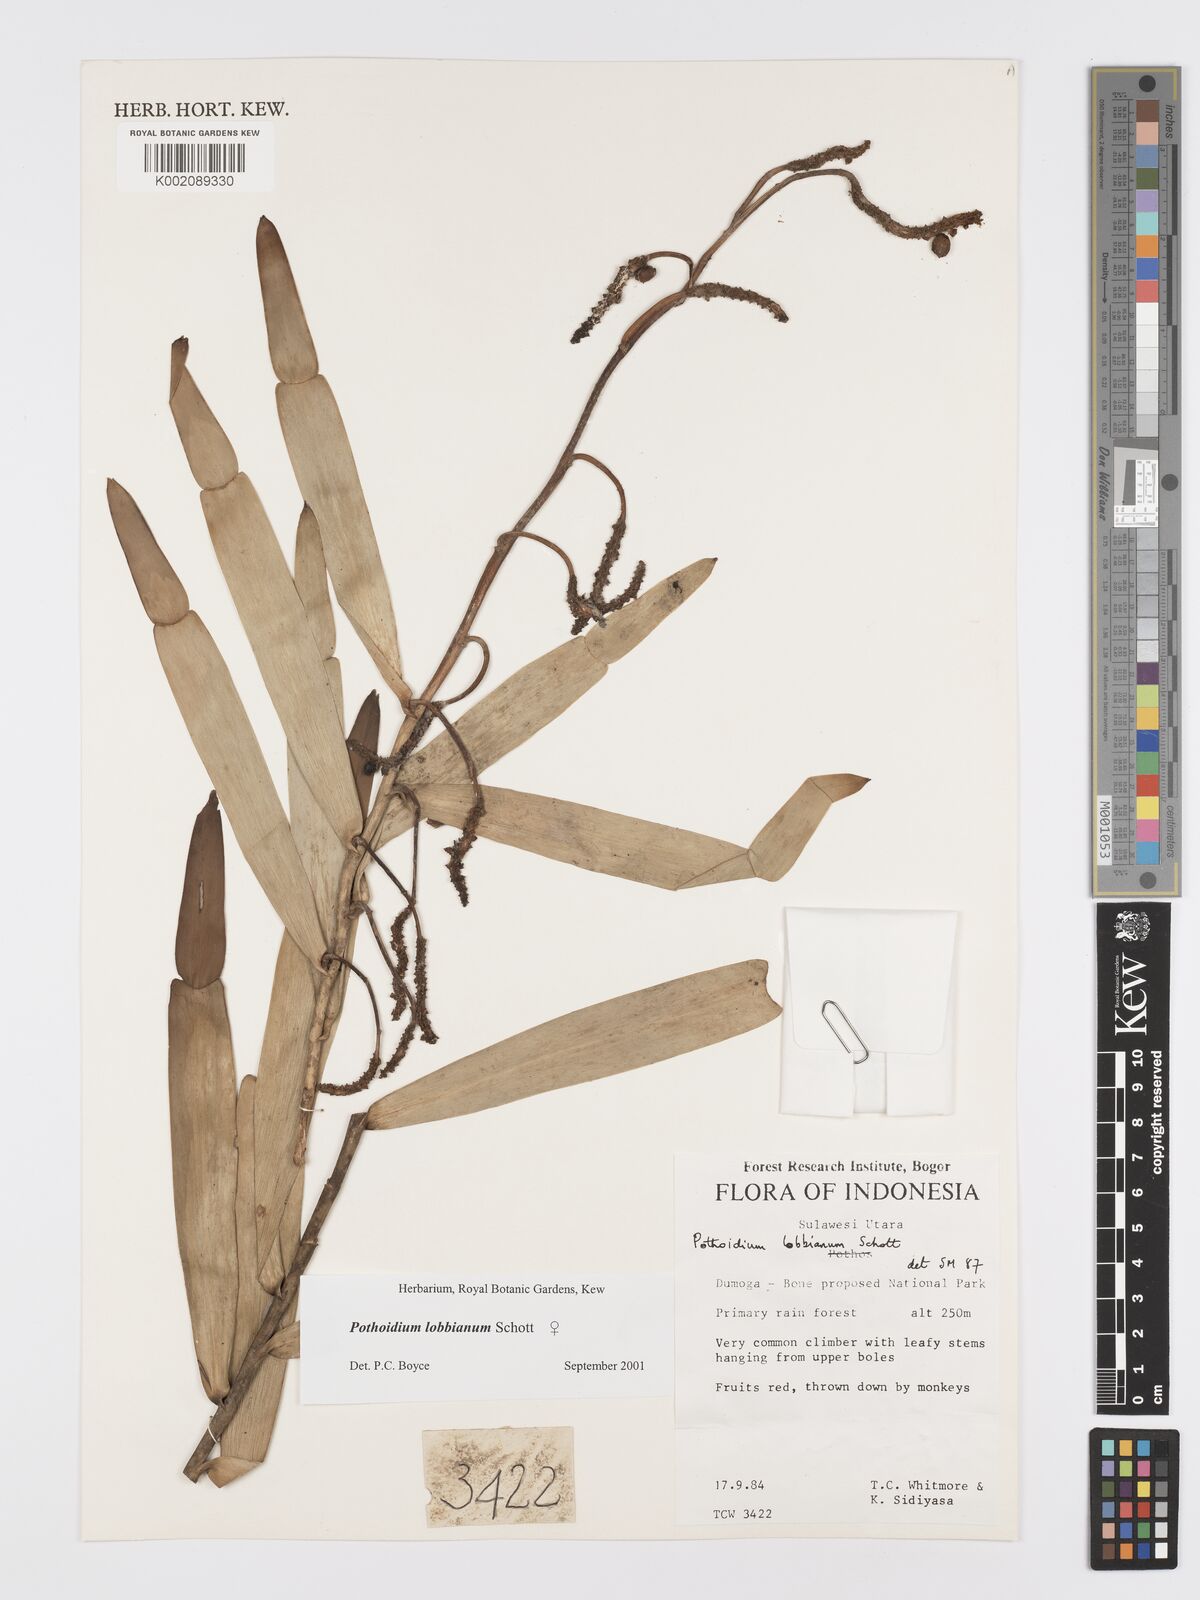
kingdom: Plantae
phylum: Tracheophyta
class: Liliopsida
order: Alismatales
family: Araceae
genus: Pothoidium
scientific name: Pothoidium lobbianum
